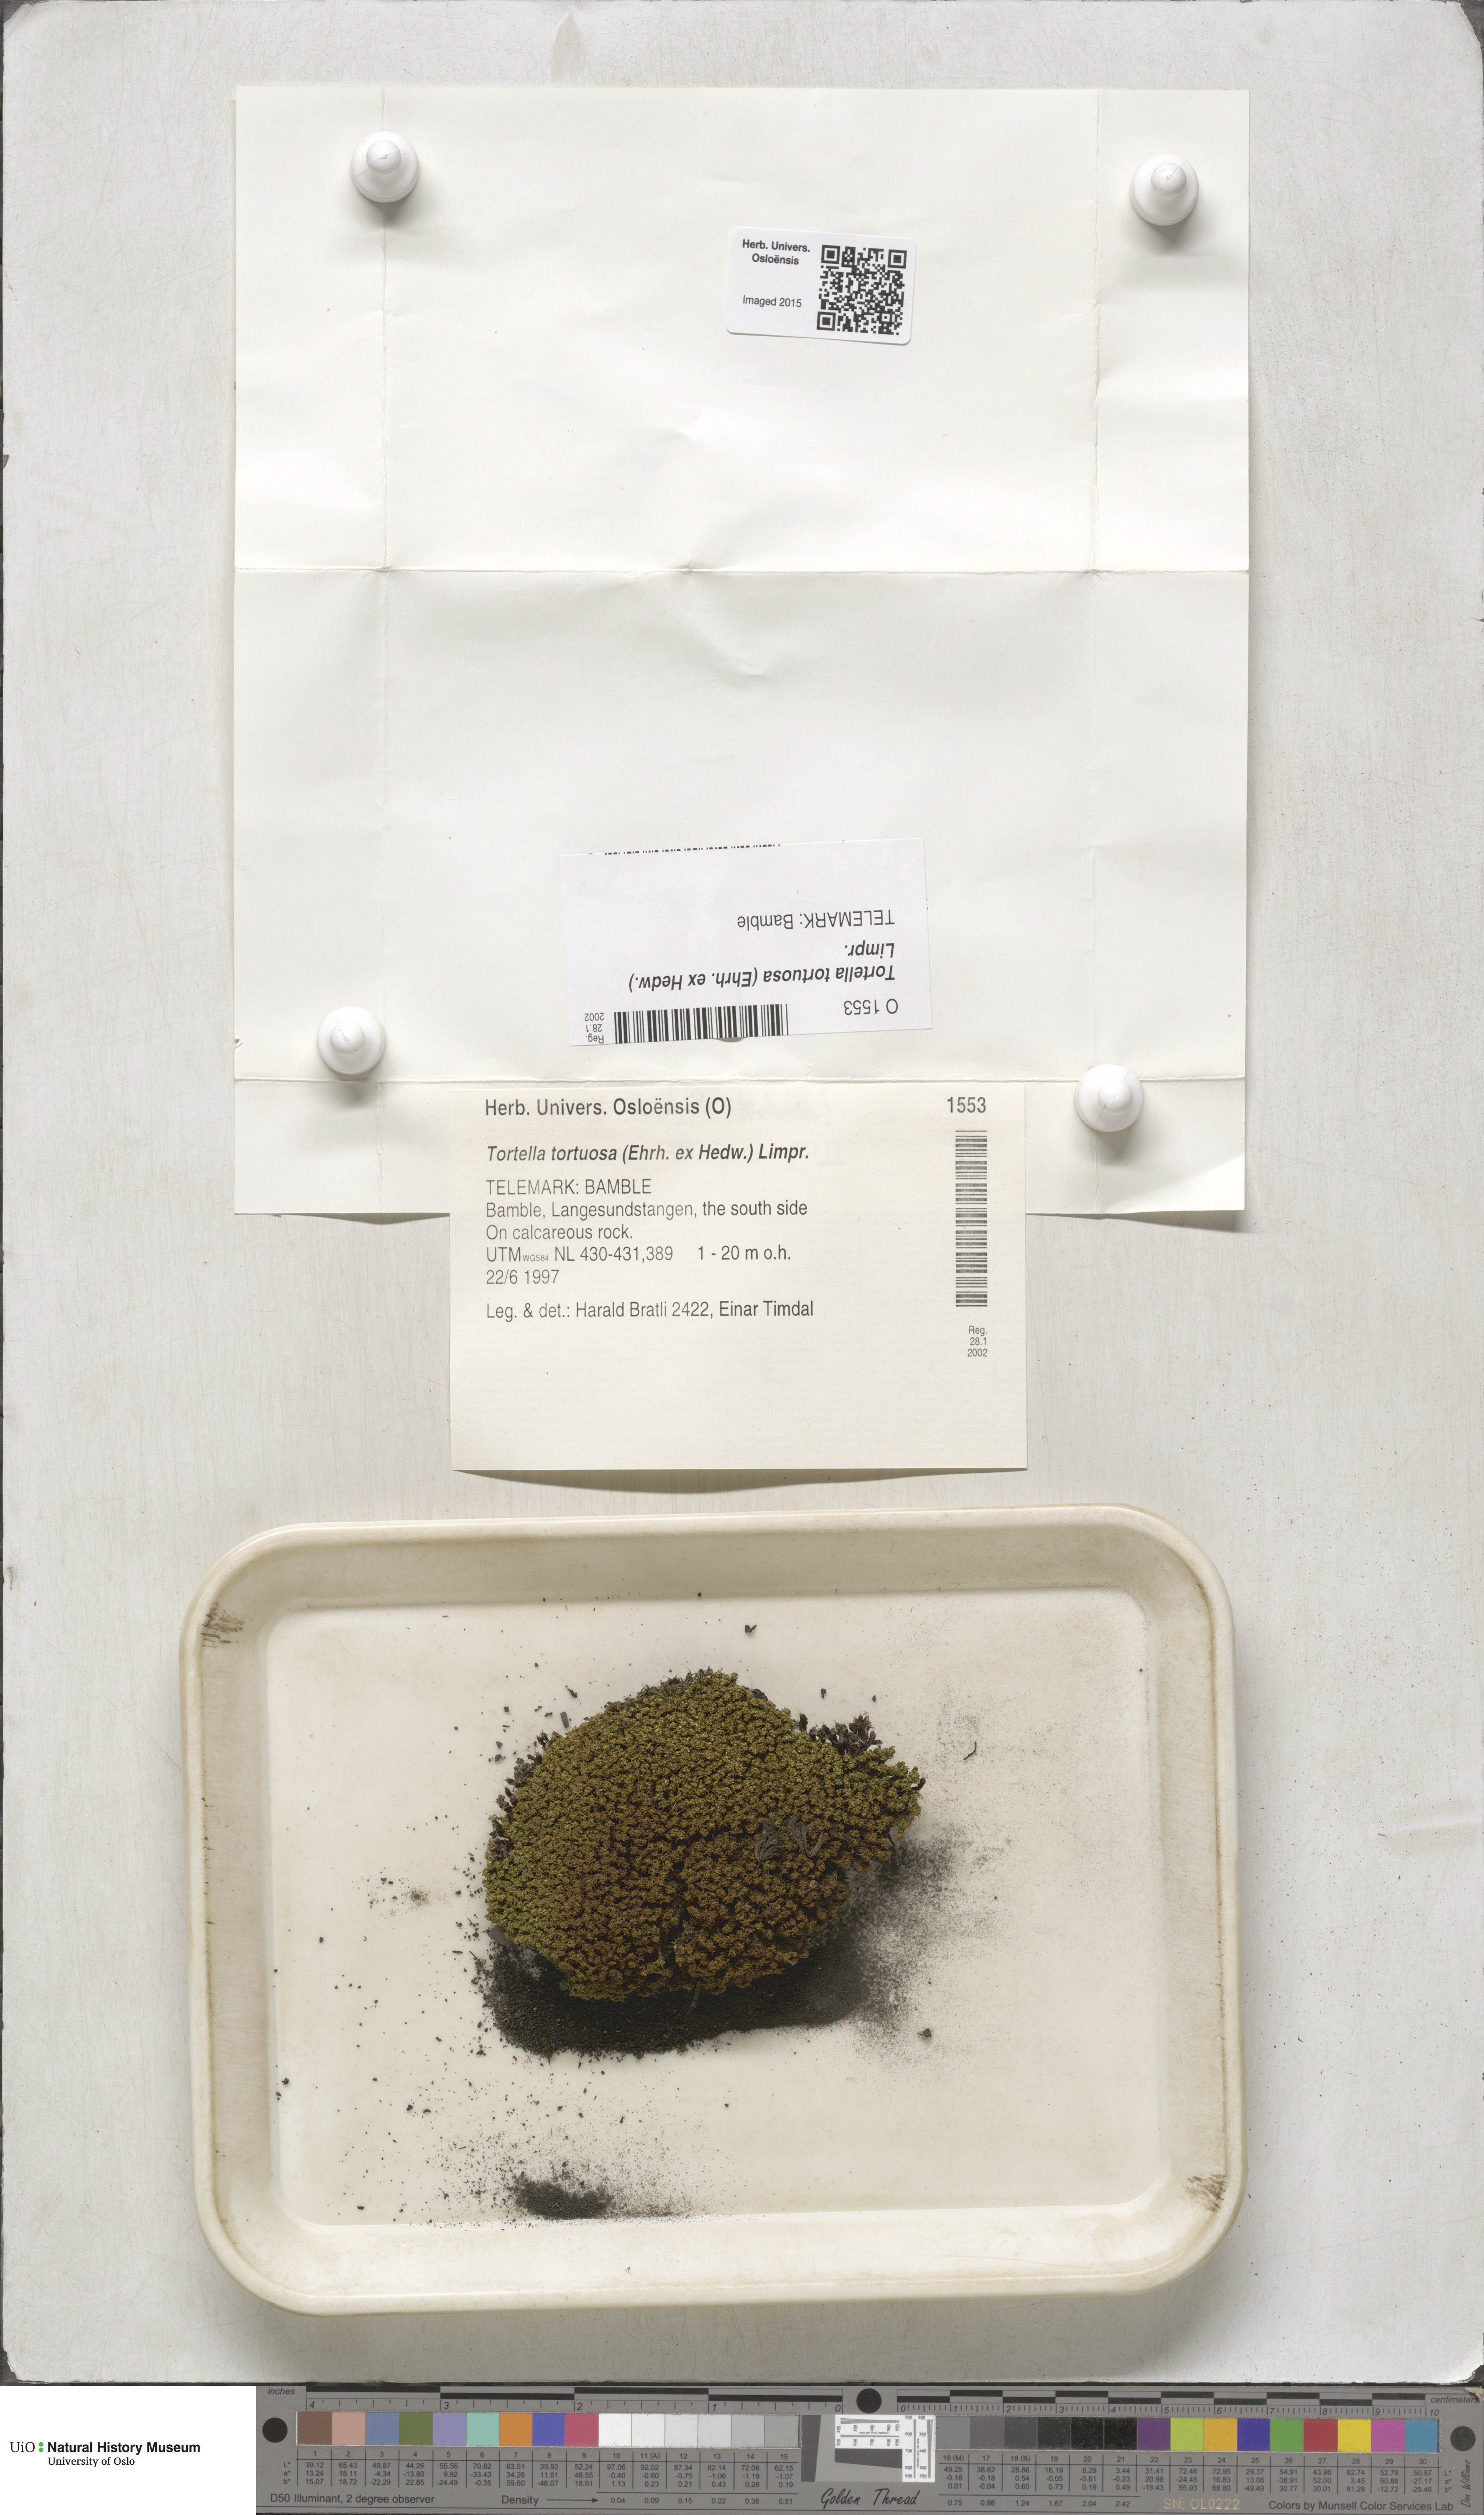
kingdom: Plantae
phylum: Bryophyta
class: Bryopsida
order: Pottiales
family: Pottiaceae
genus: Tortella
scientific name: Tortella tortuosa
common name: Frizzled crisp moss
